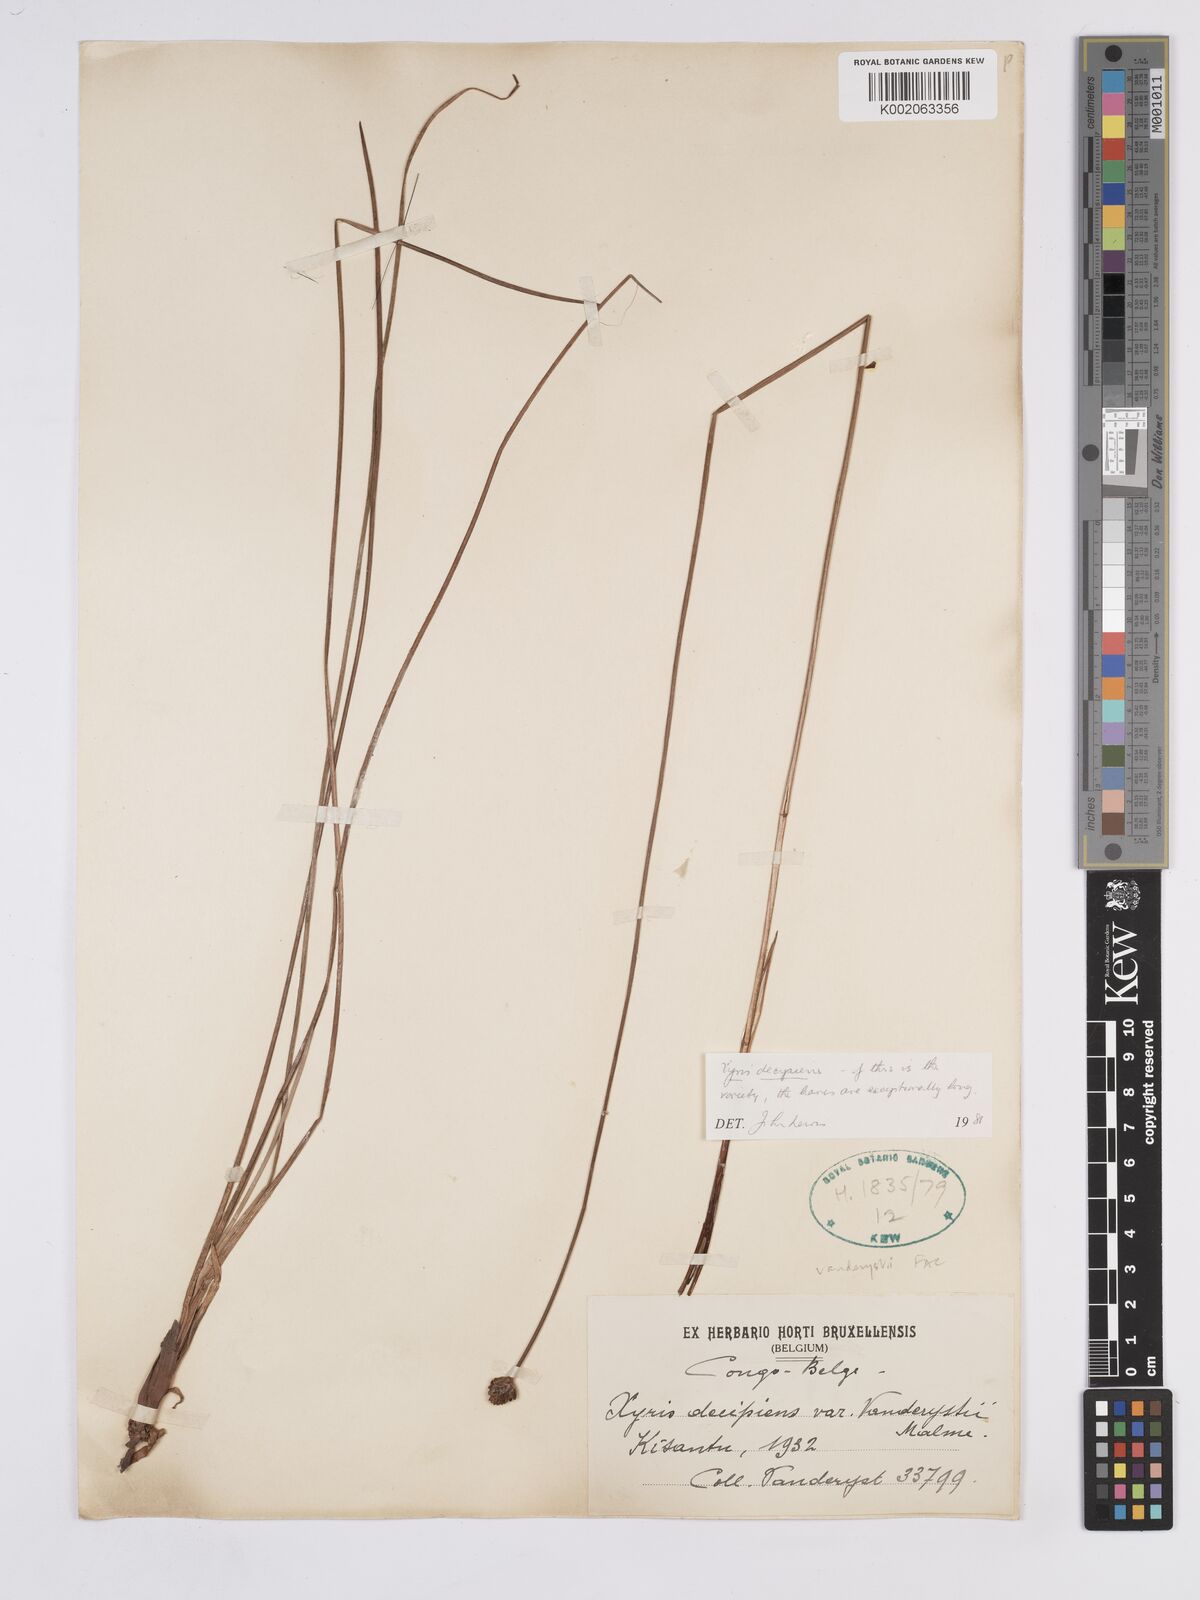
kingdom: Plantae
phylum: Tracheophyta
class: Liliopsida
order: Poales
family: Xyridaceae
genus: Xyris
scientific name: Xyris decipiens
